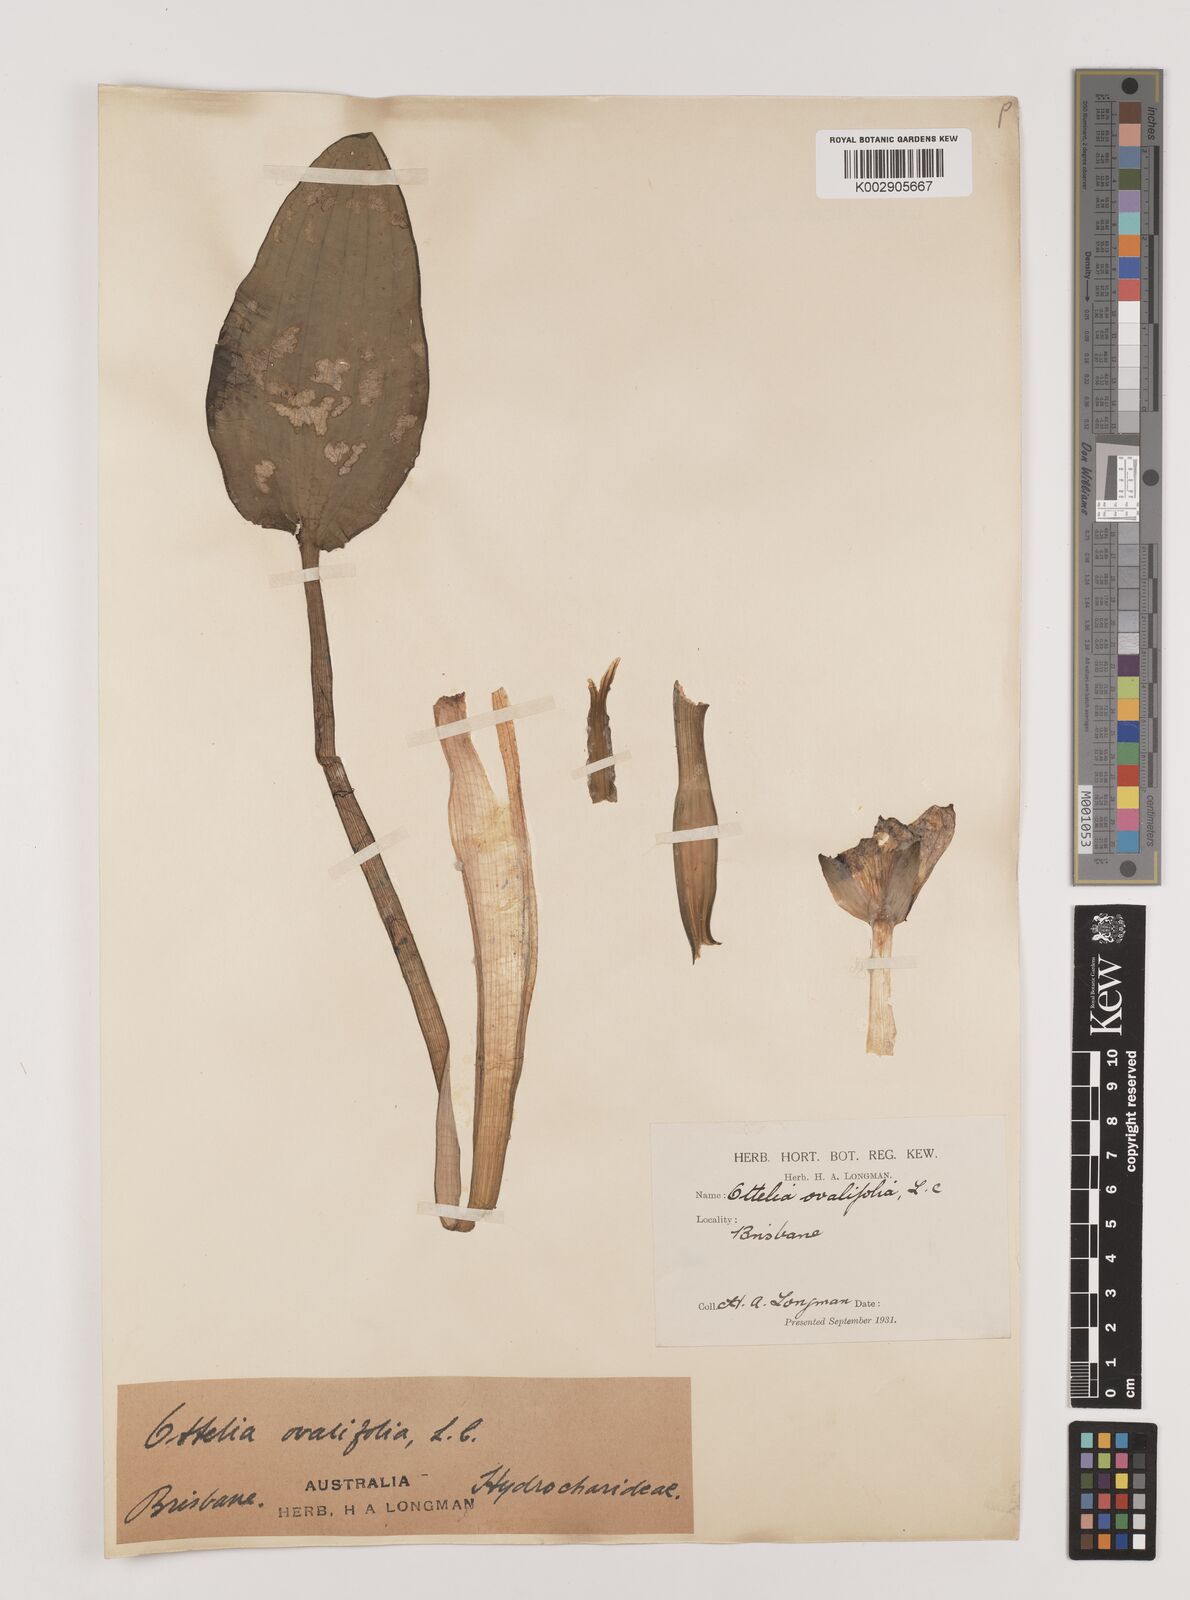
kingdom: Plantae
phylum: Tracheophyta
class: Liliopsida
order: Alismatales
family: Hydrocharitaceae
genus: Ottelia
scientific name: Ottelia ovalifolia
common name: Swamp-lily
